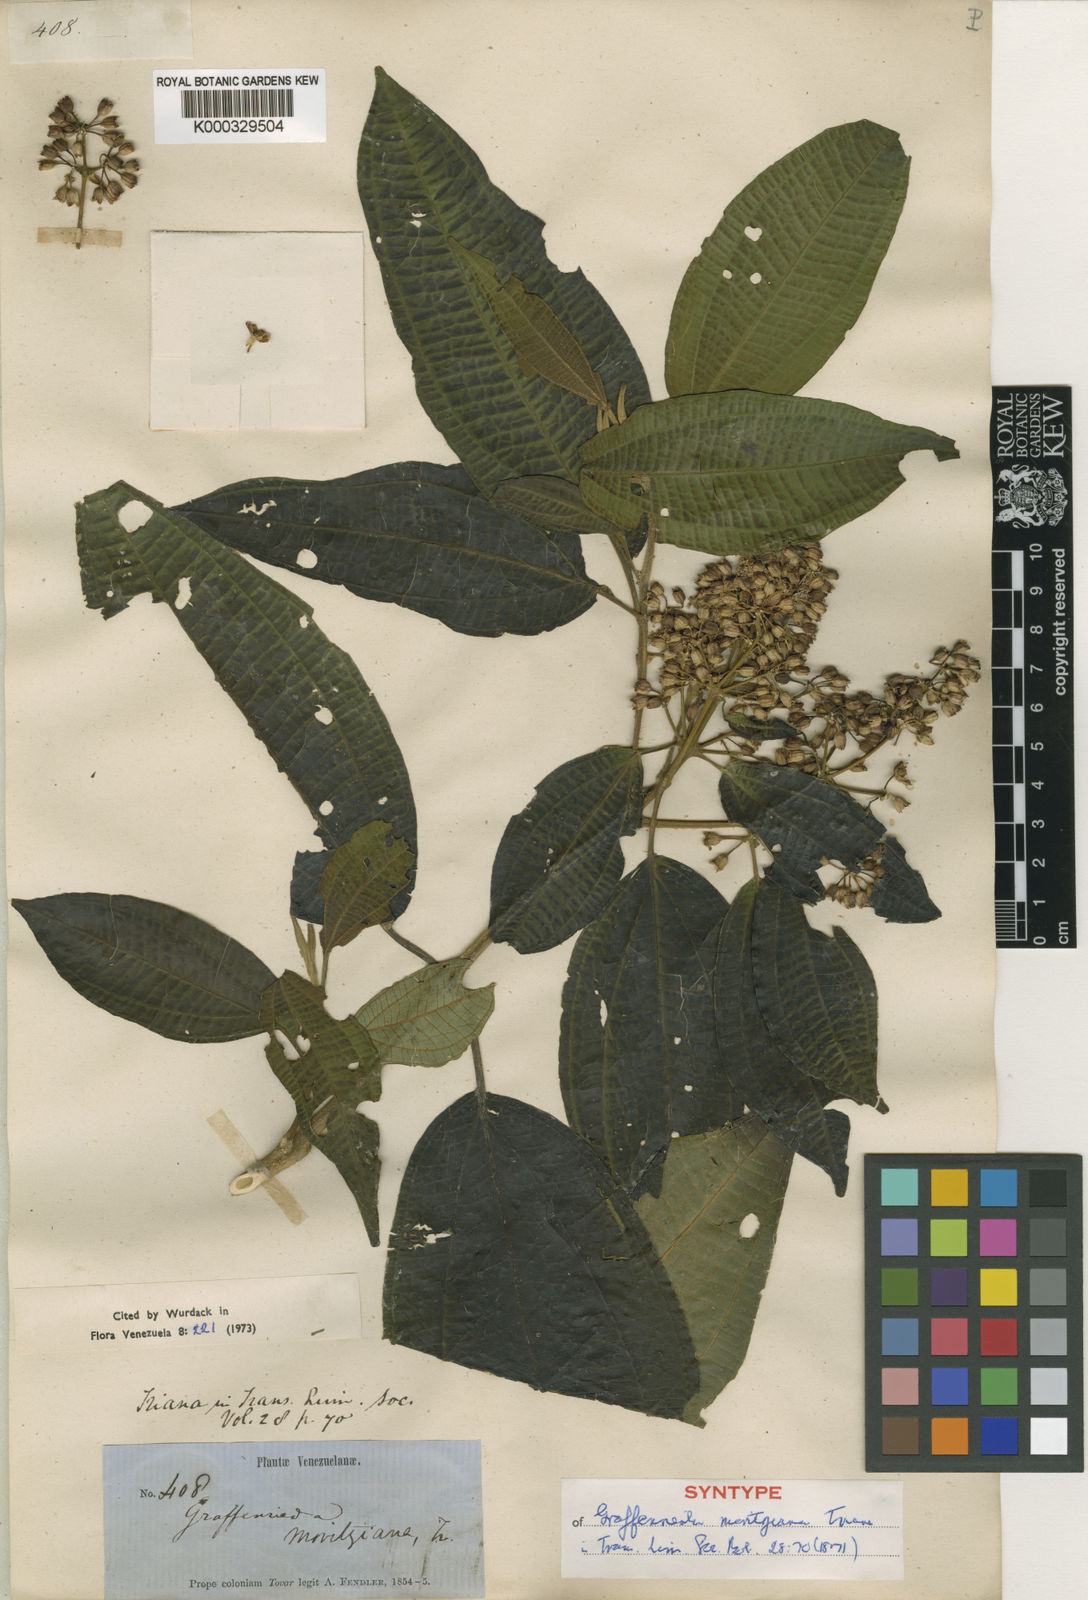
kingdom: Plantae
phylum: Tracheophyta
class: Magnoliopsida
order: Myrtales
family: Melastomataceae
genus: Graffenrieda
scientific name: Graffenrieda moritziana
